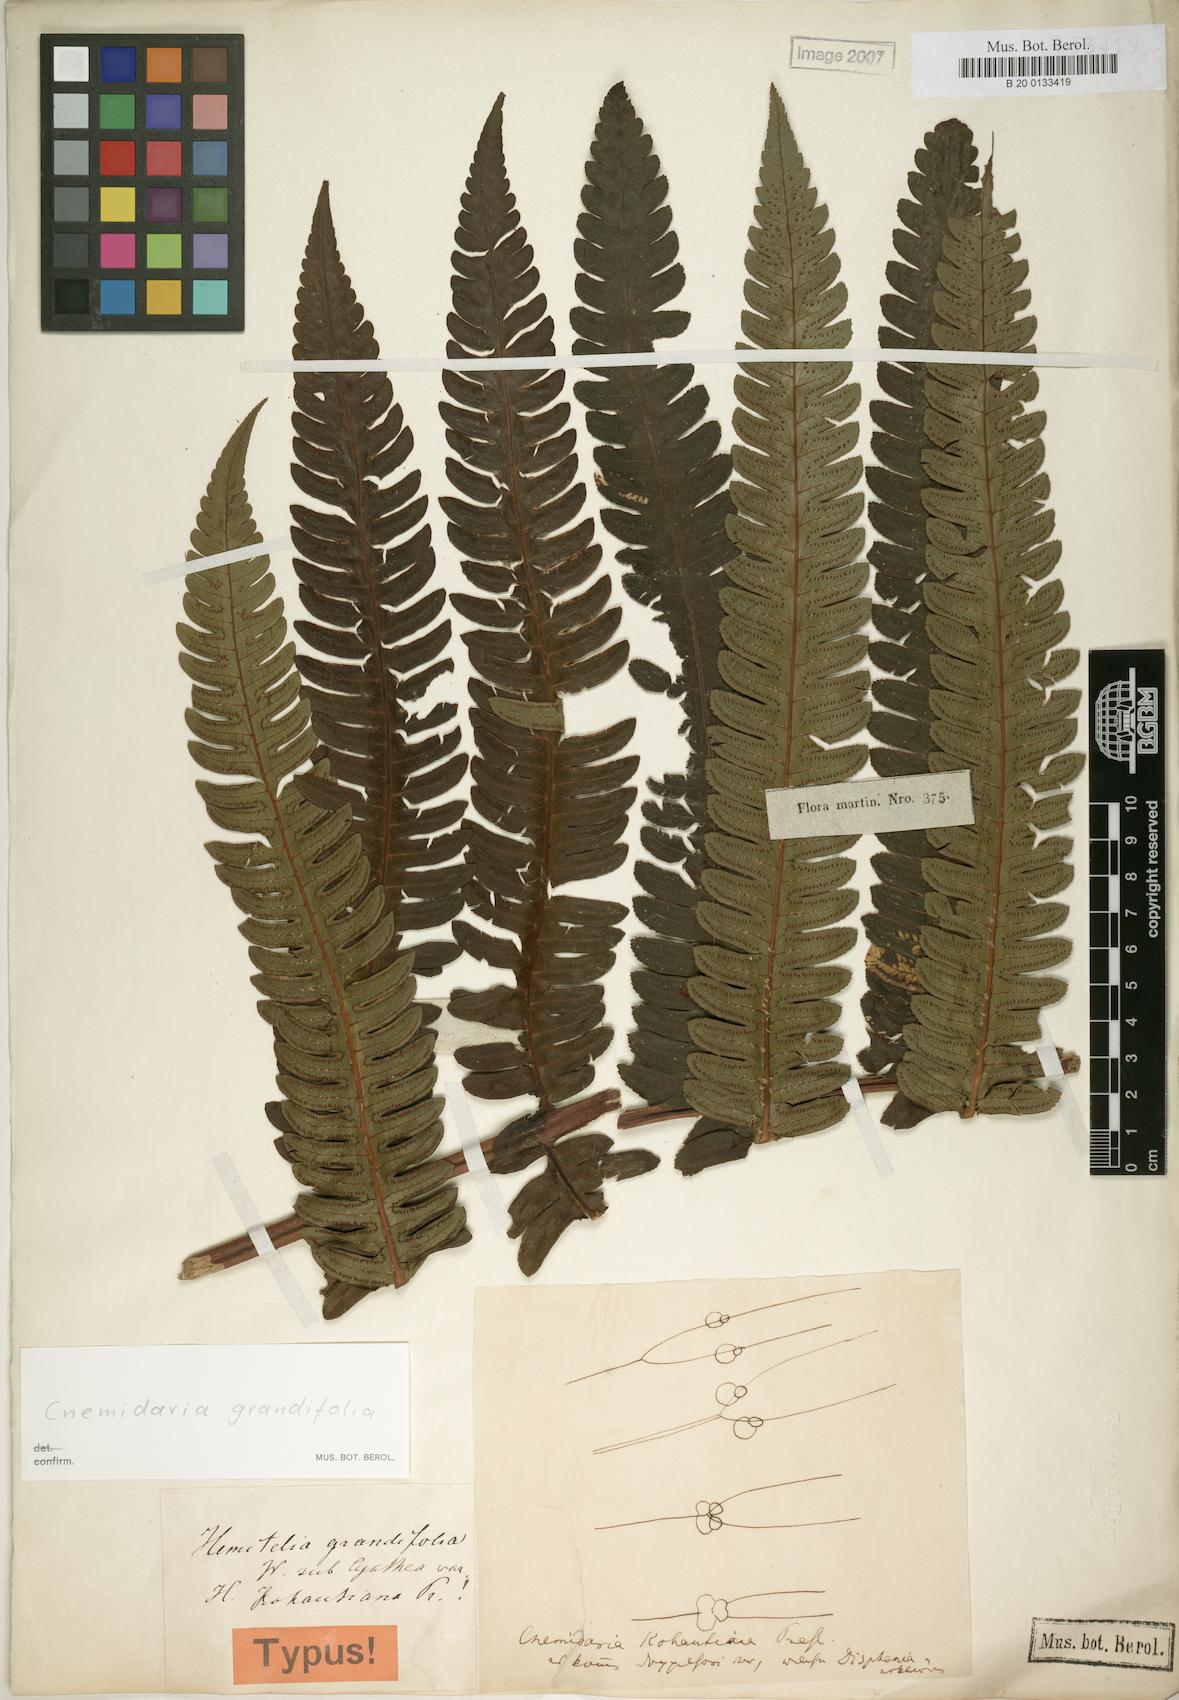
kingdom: Plantae
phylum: Tracheophyta
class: Polypodiopsida
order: Cyatheales
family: Cyatheaceae
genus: Cyathea
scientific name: Cyathea grandifolia
